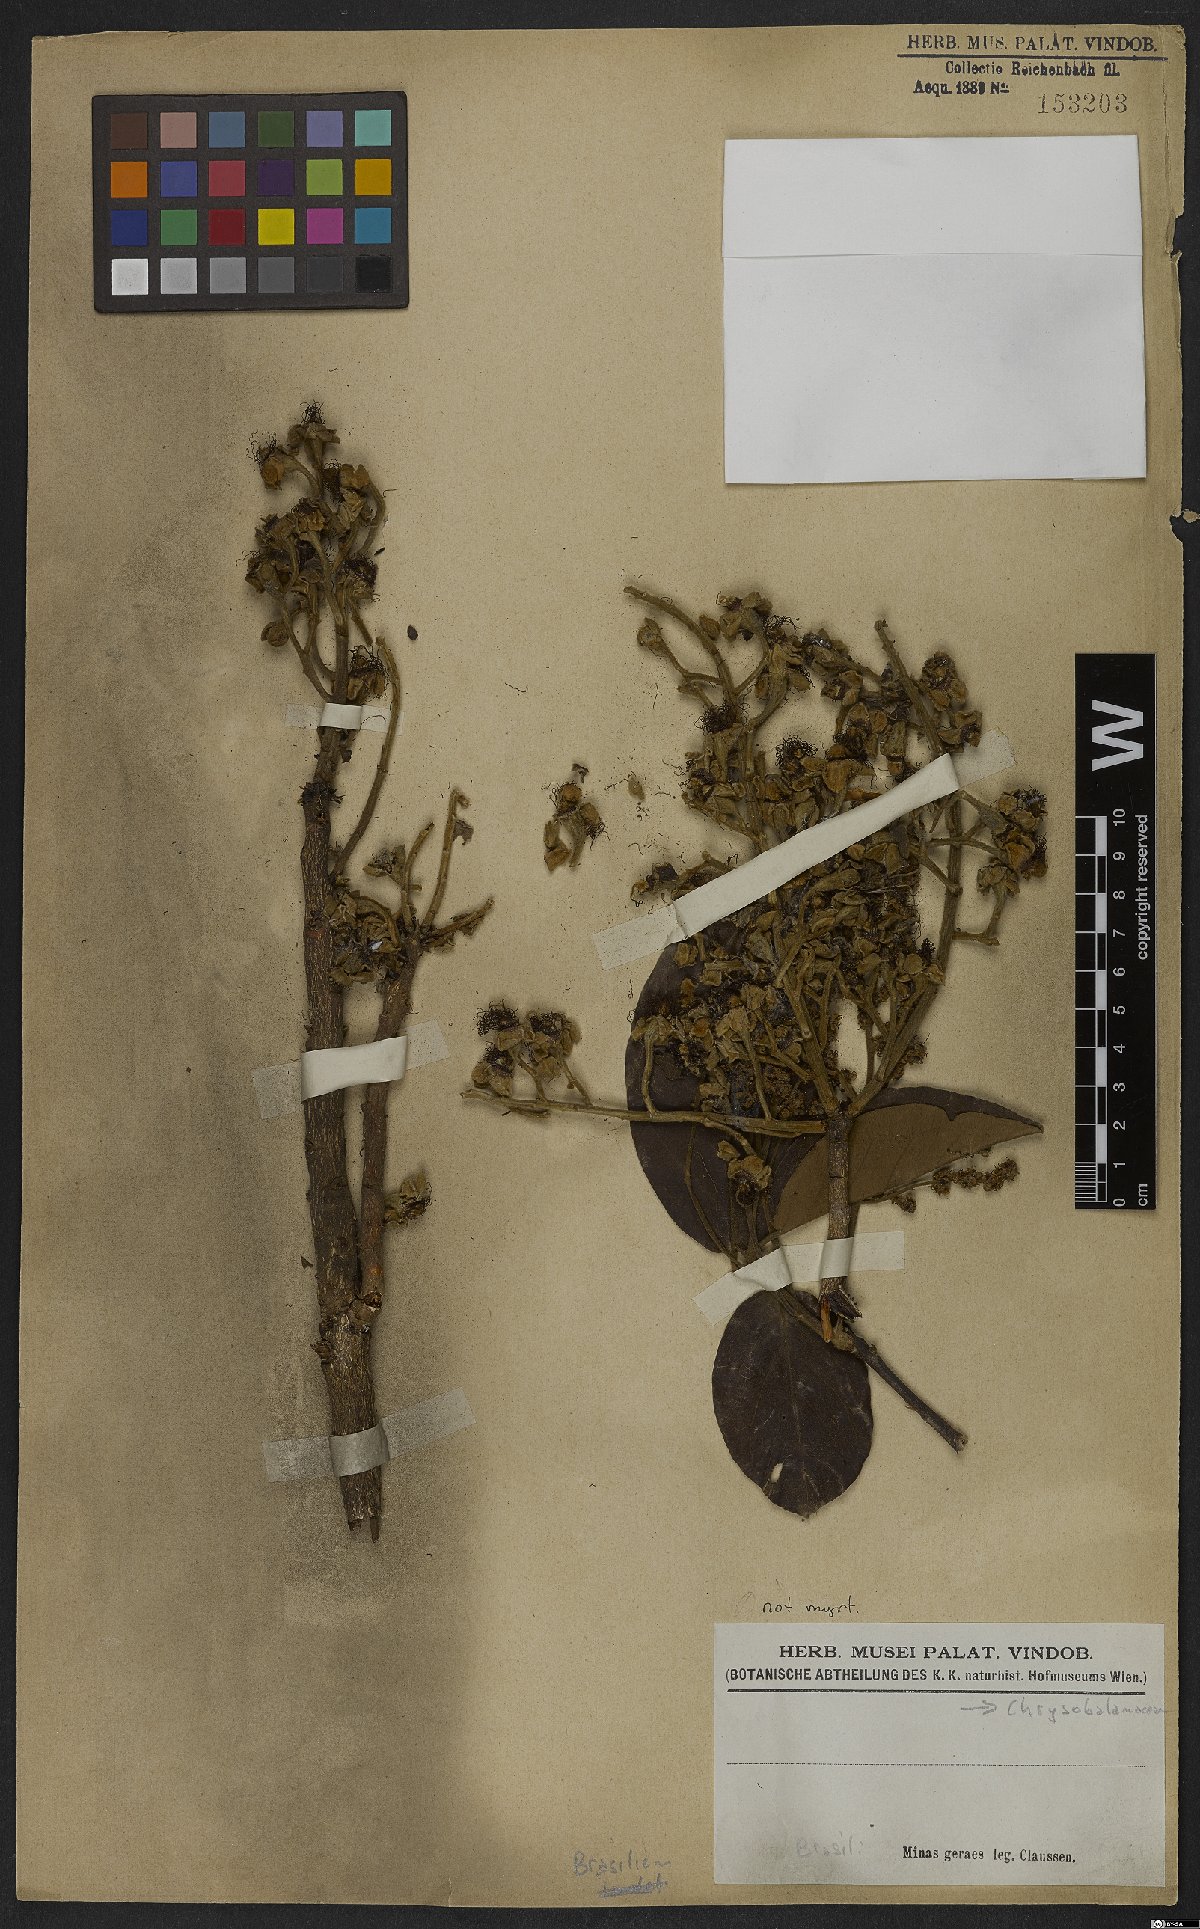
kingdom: Plantae
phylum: Tracheophyta
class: Magnoliopsida
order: Malpighiales
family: Chrysobalanaceae
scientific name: Chrysobalanaceae
